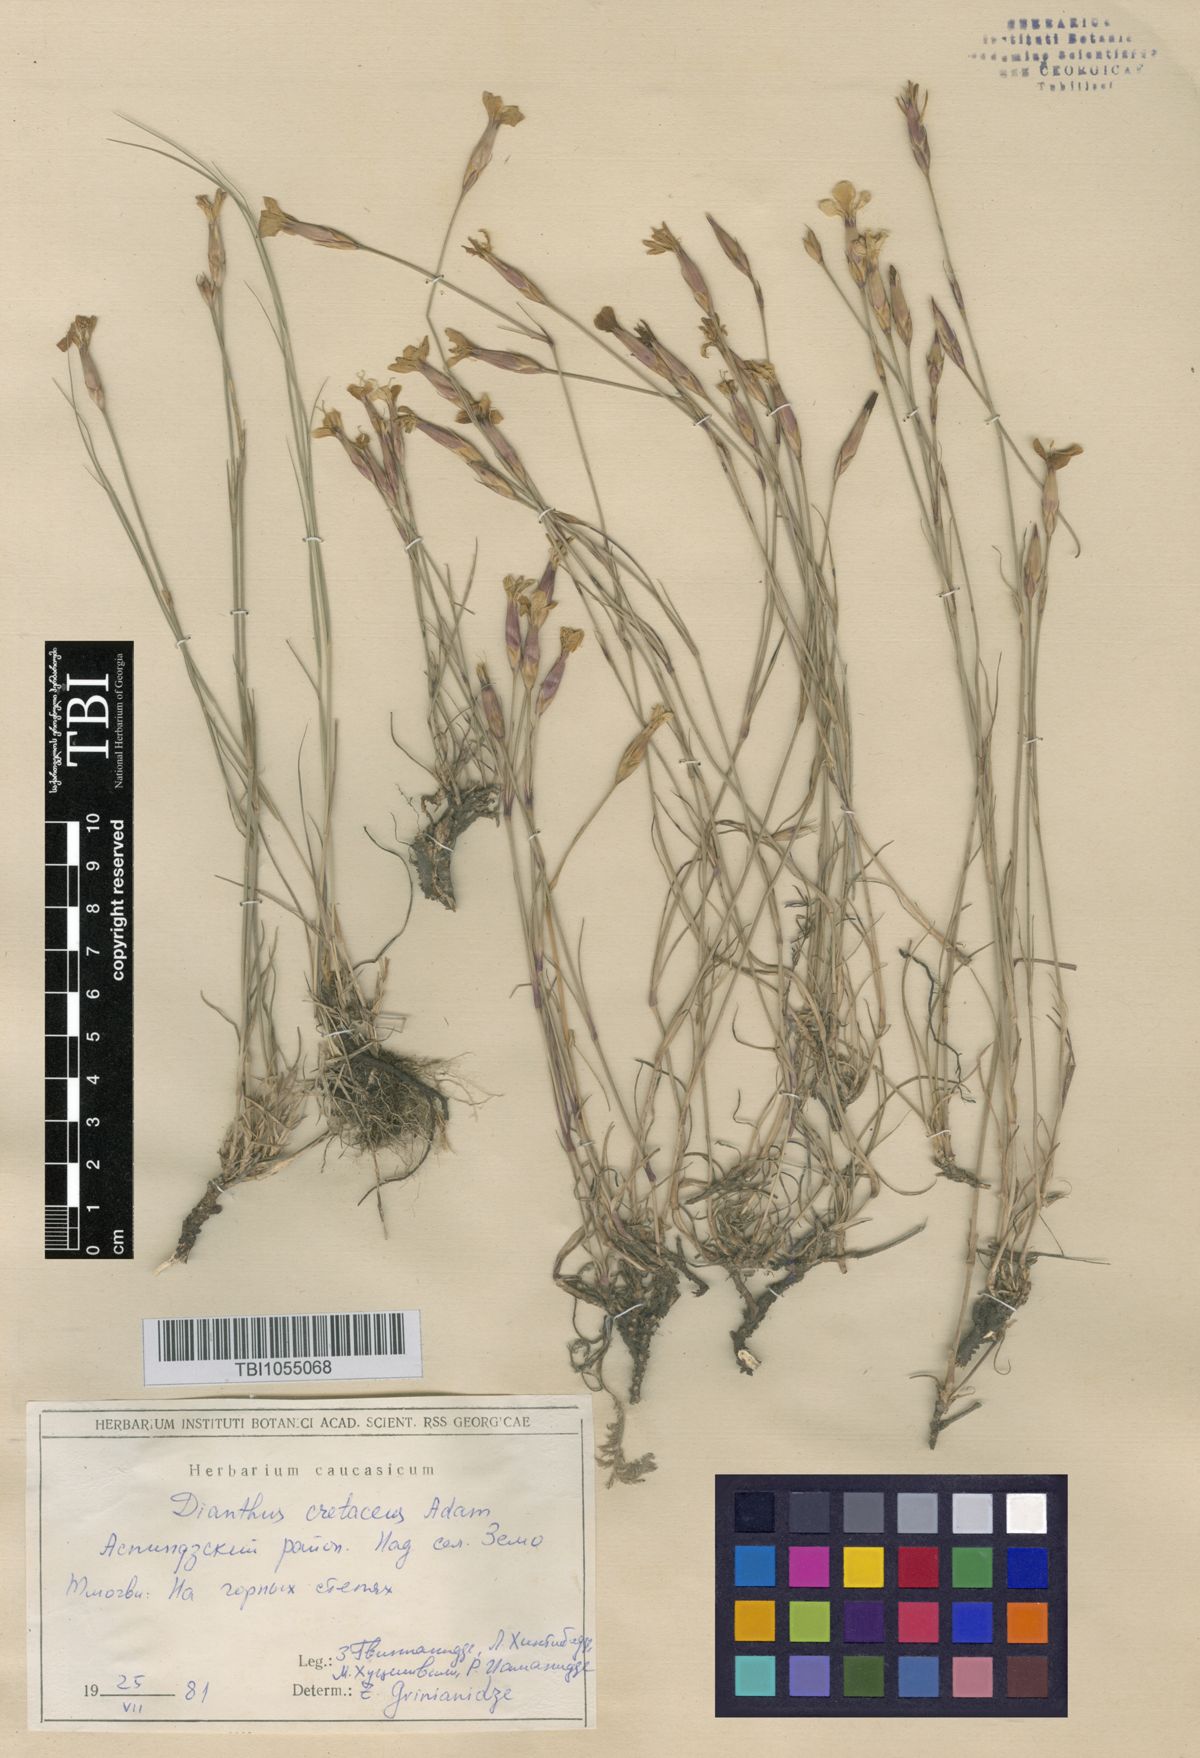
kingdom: Plantae
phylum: Tracheophyta
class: Magnoliopsida
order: Caryophyllales
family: Caryophyllaceae
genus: Dianthus
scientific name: Dianthus cretaceus
